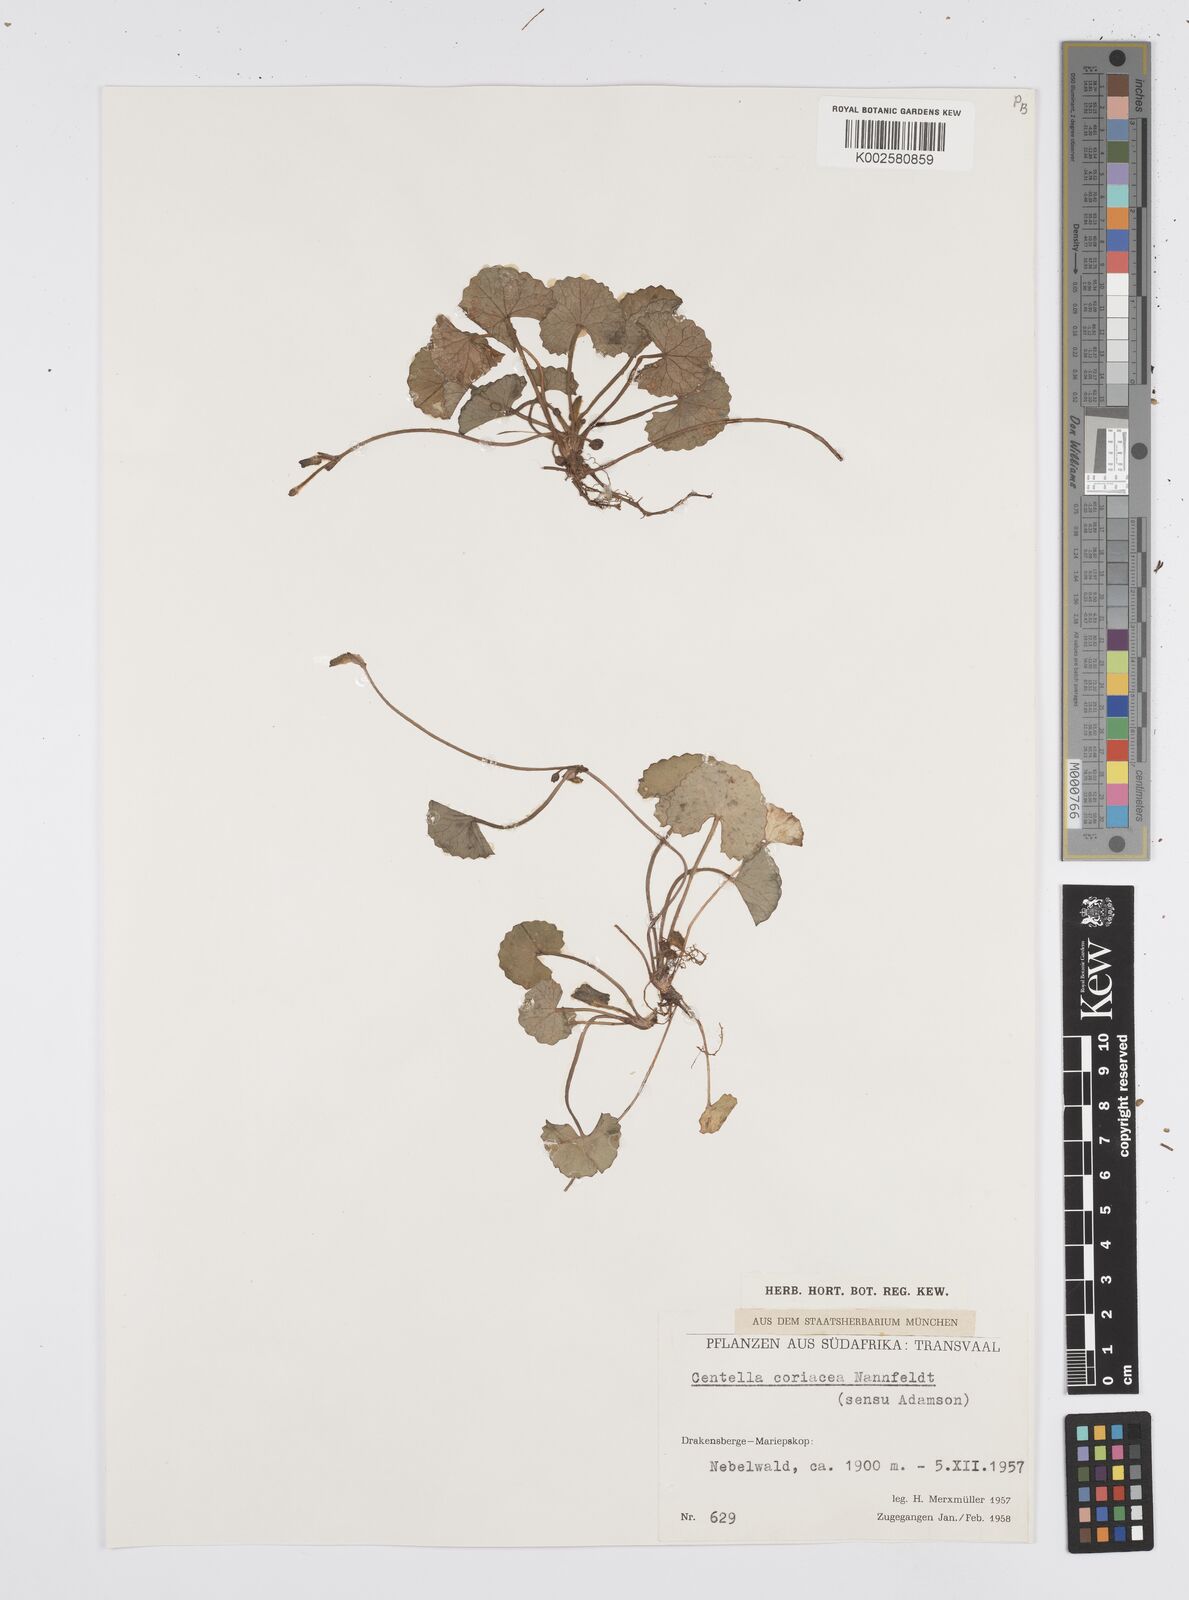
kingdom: Plantae
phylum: Tracheophyta
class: Magnoliopsida
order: Apiales
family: Apiaceae
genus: Centella
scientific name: Centella coriacea
